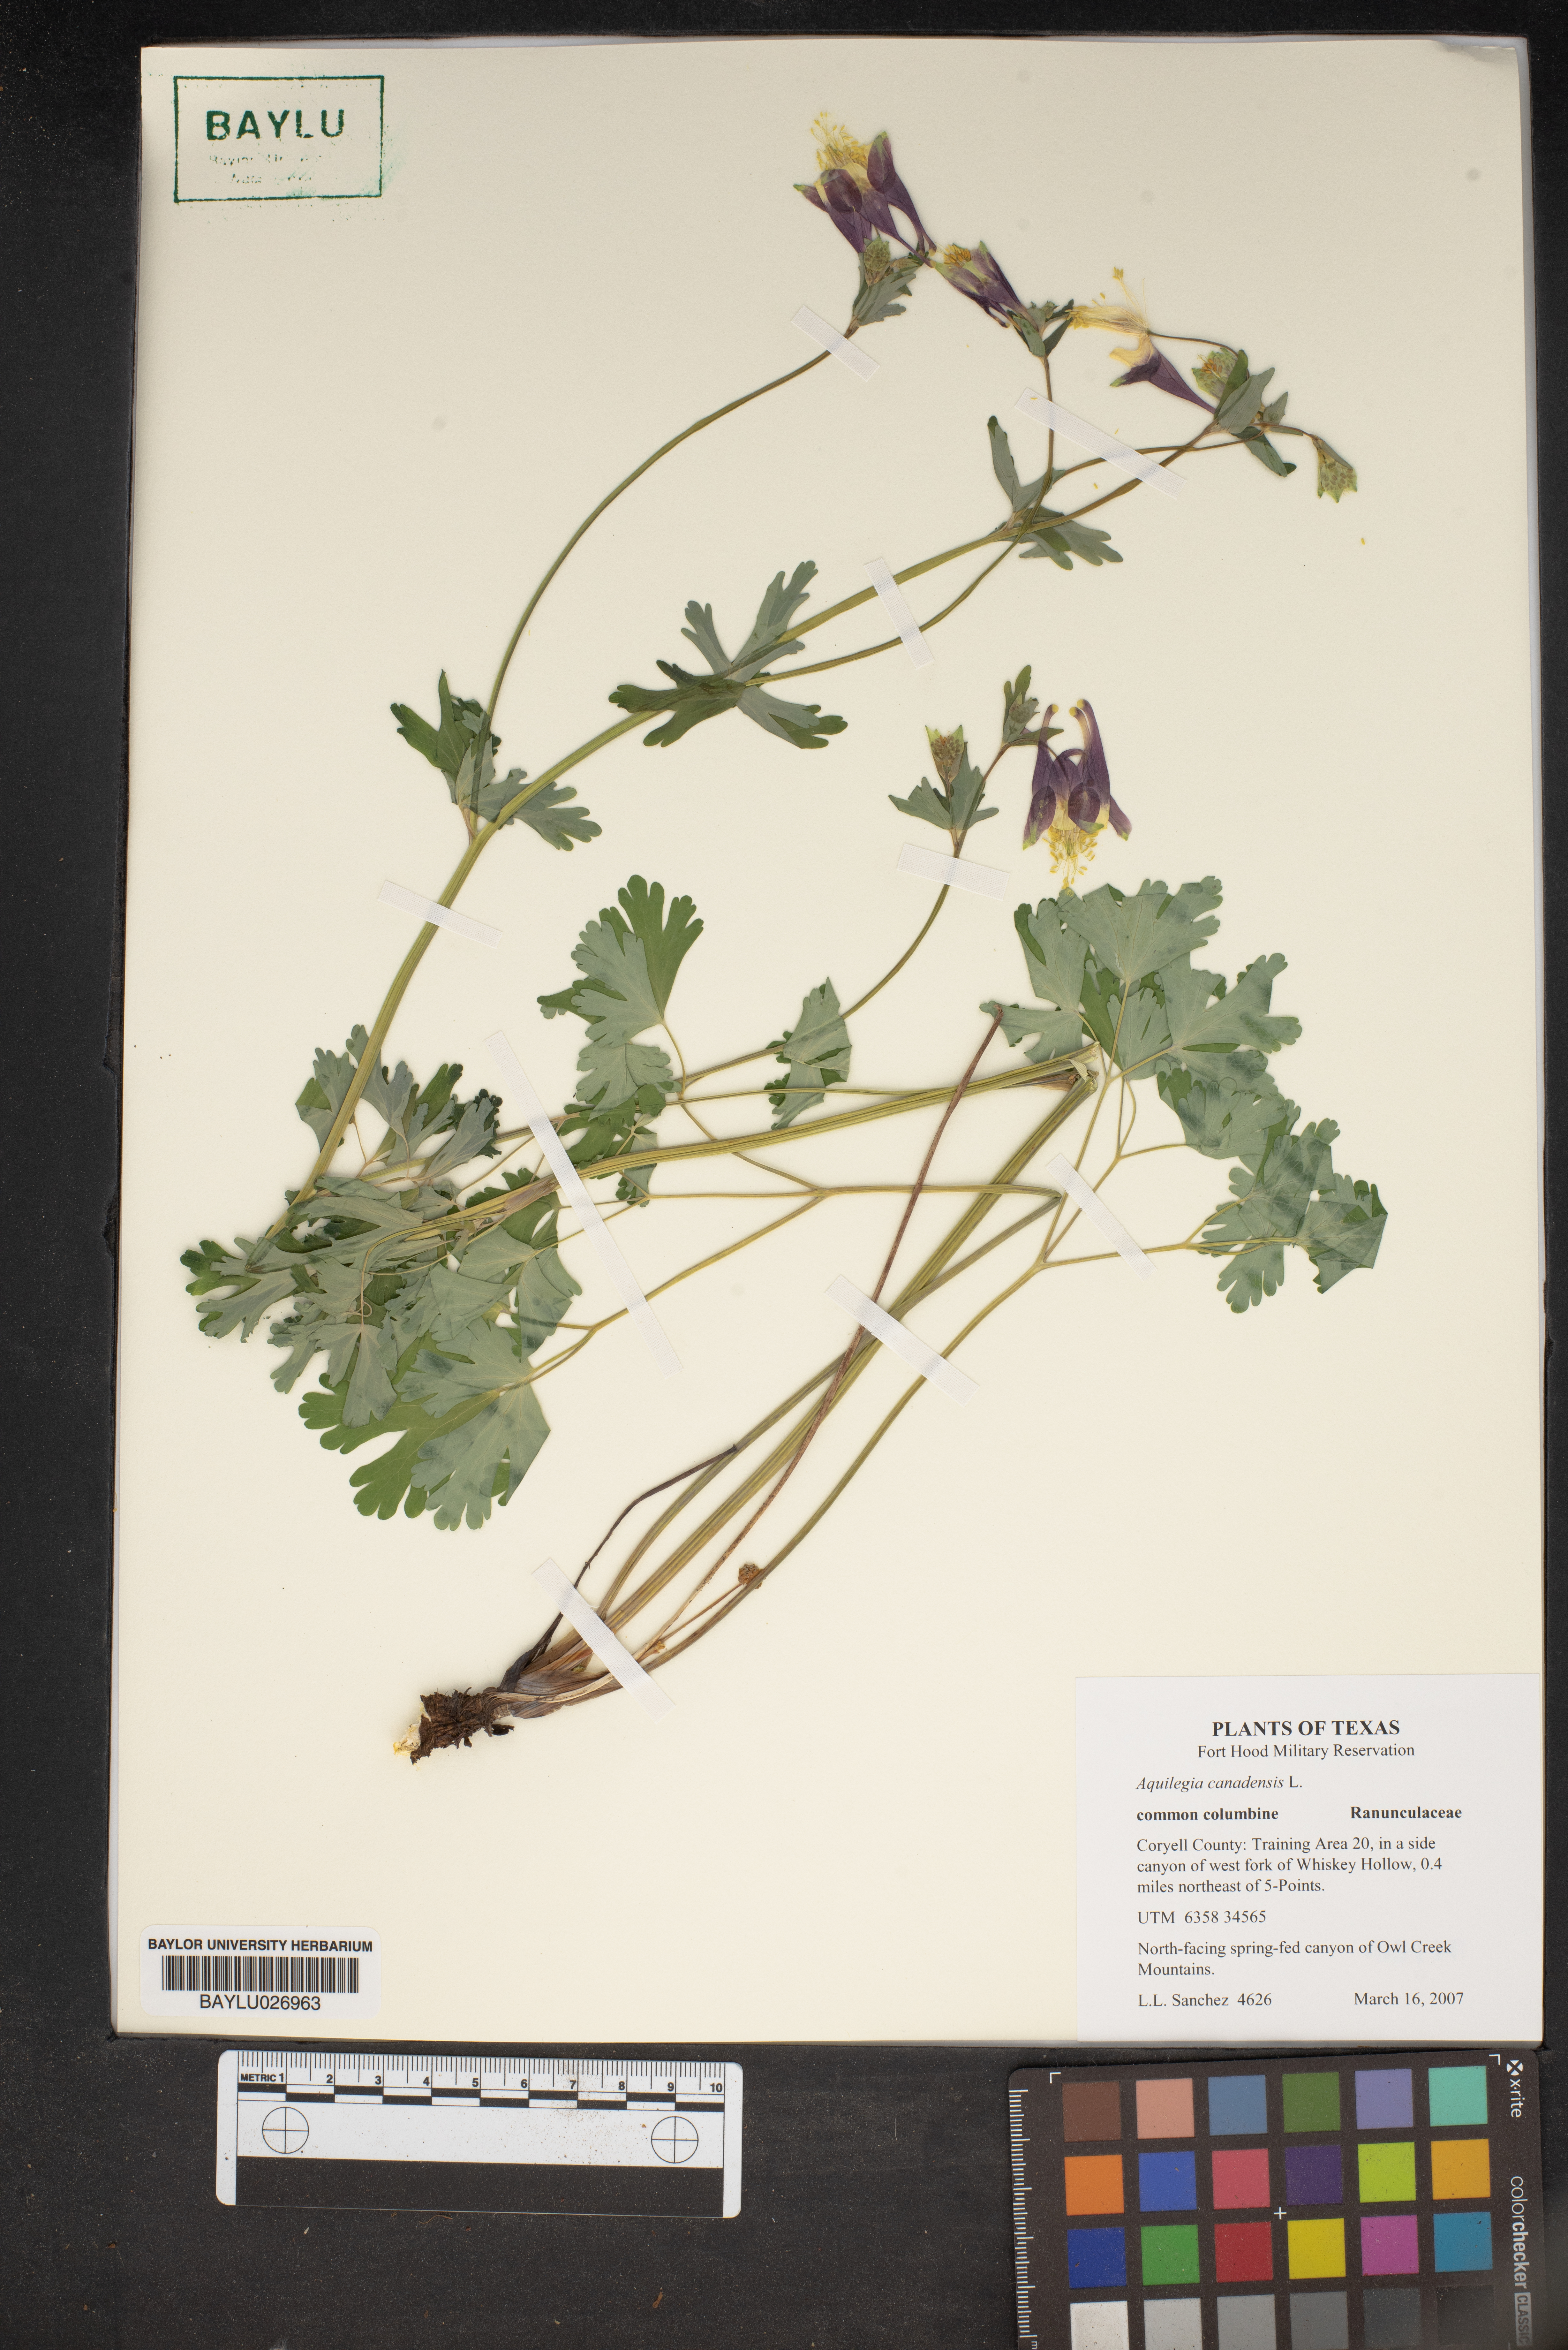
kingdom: Plantae
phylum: Tracheophyta
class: Magnoliopsida
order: Ranunculales
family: Ranunculaceae
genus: Aquilegia
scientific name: Aquilegia canadensis
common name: American columbine
